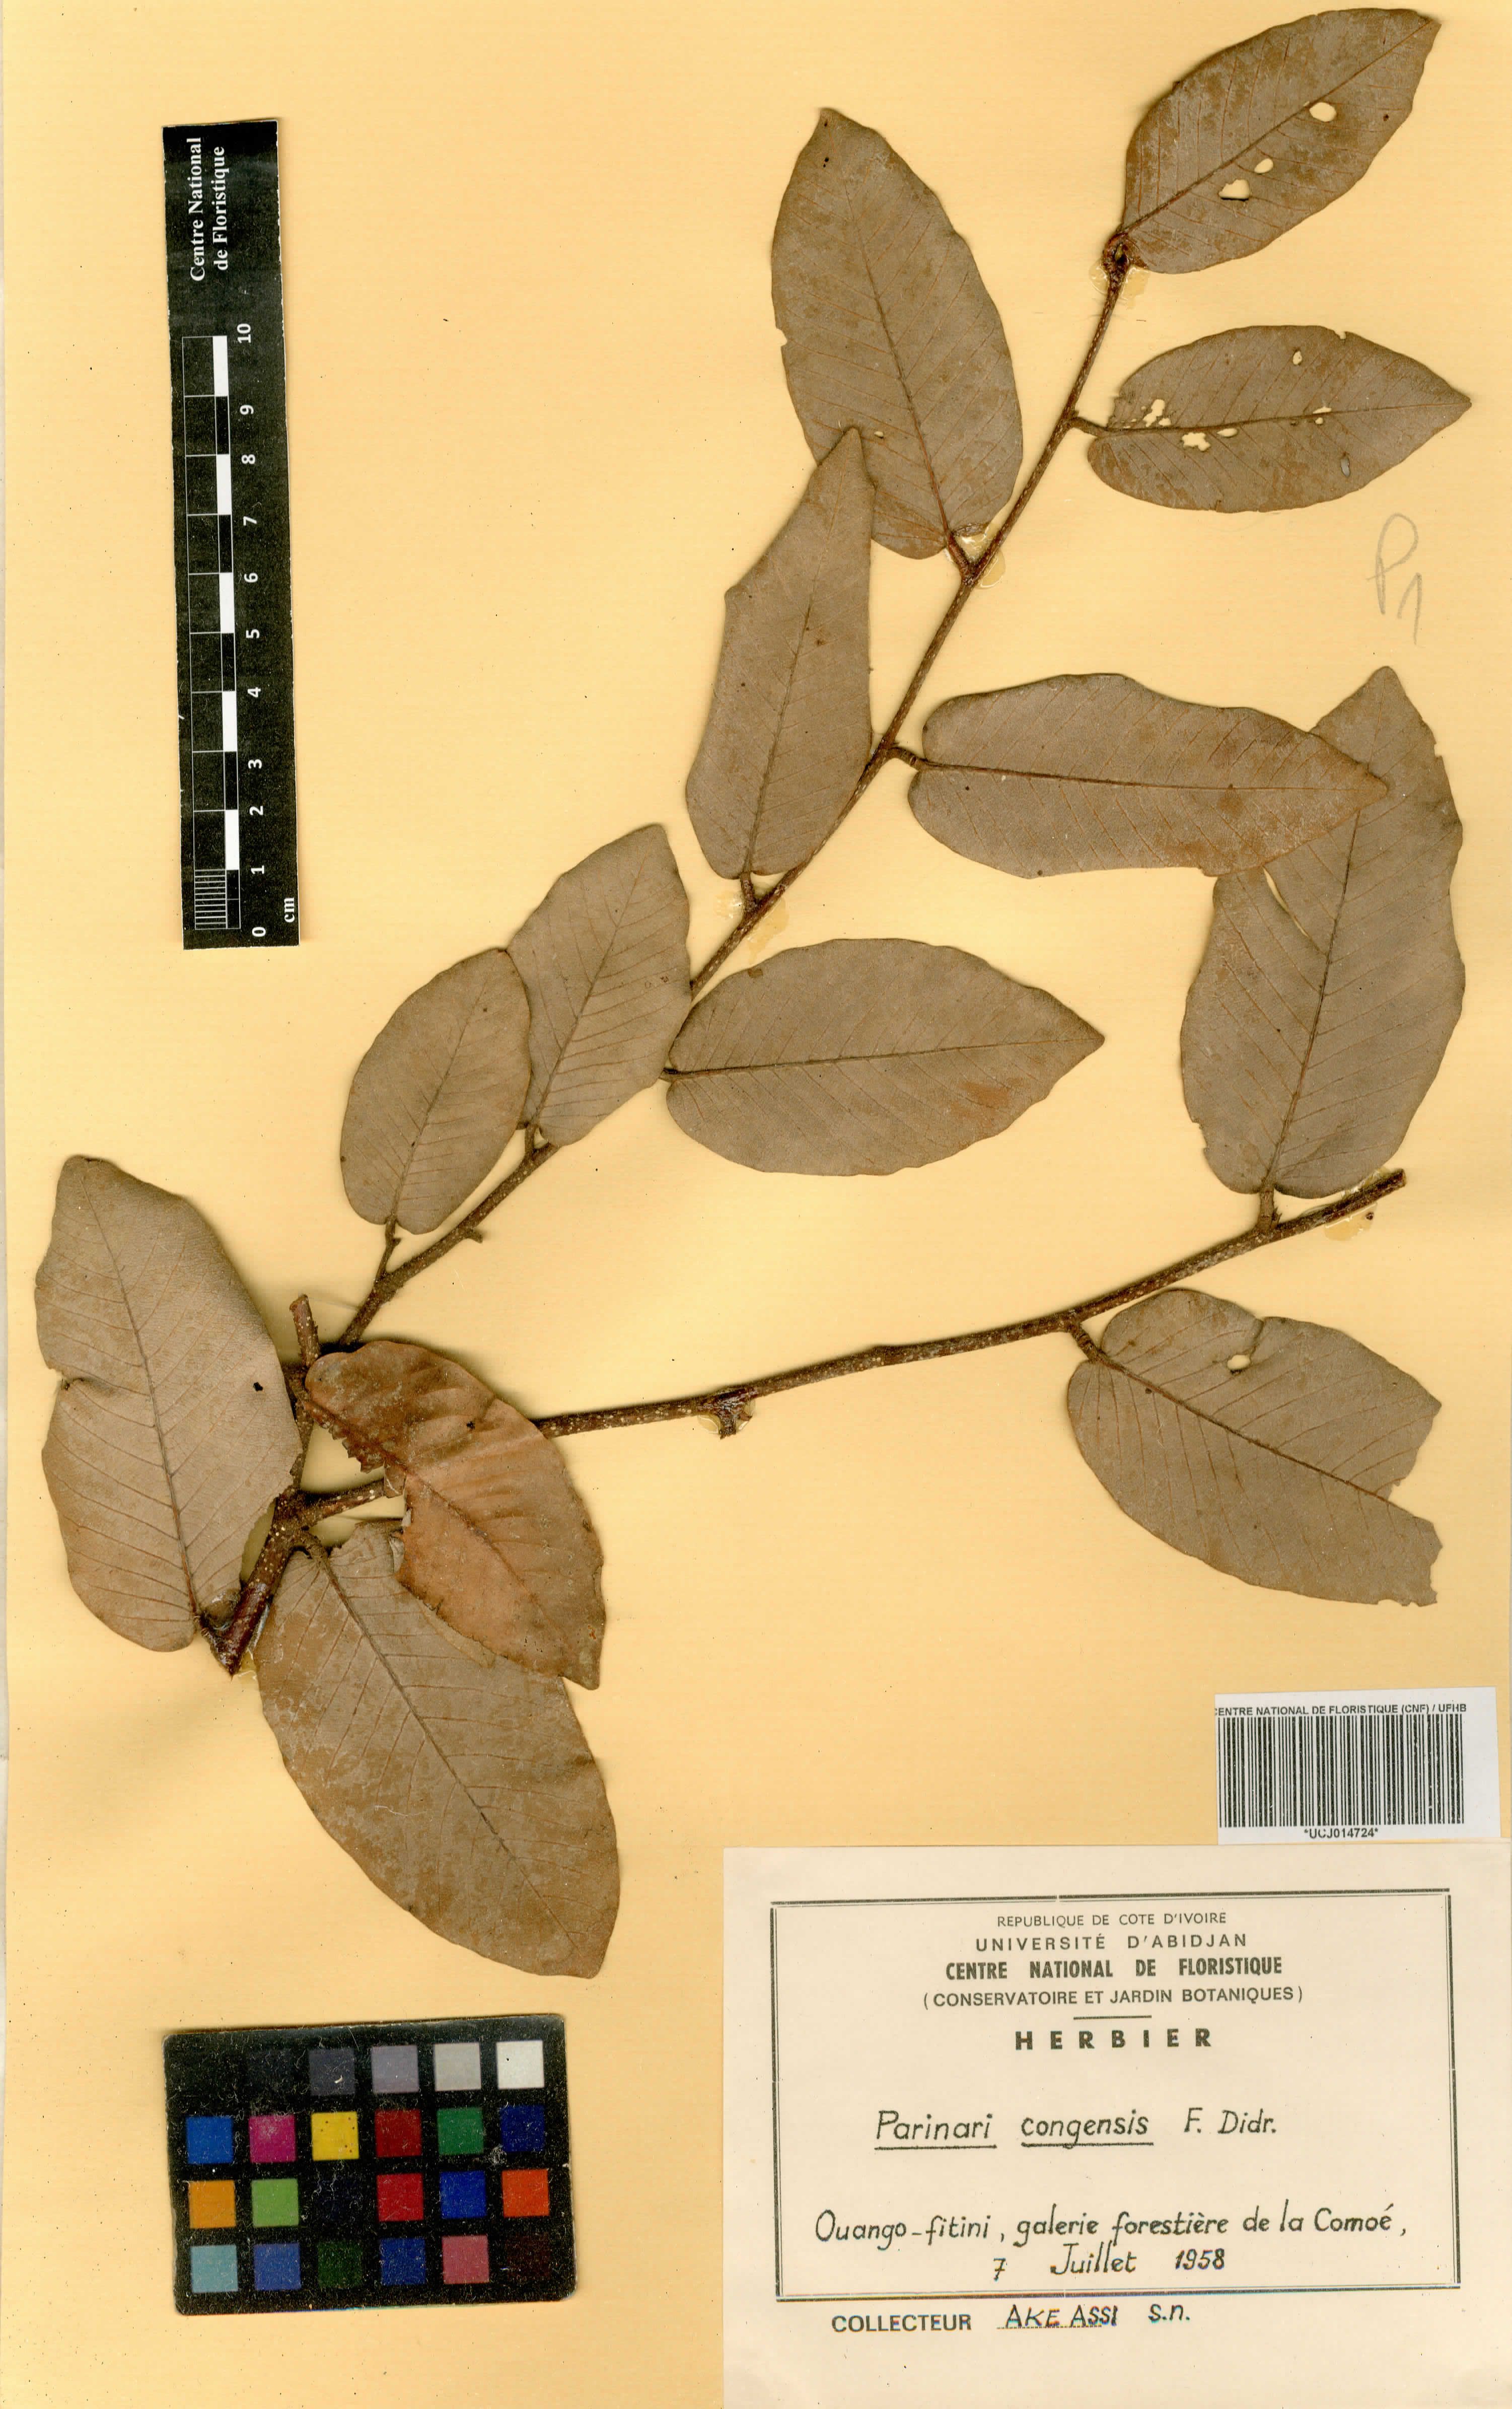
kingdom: Plantae
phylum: Tracheophyta
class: Magnoliopsida
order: Malpighiales
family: Chrysobalanaceae
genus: Parinari
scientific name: Parinari congensis
